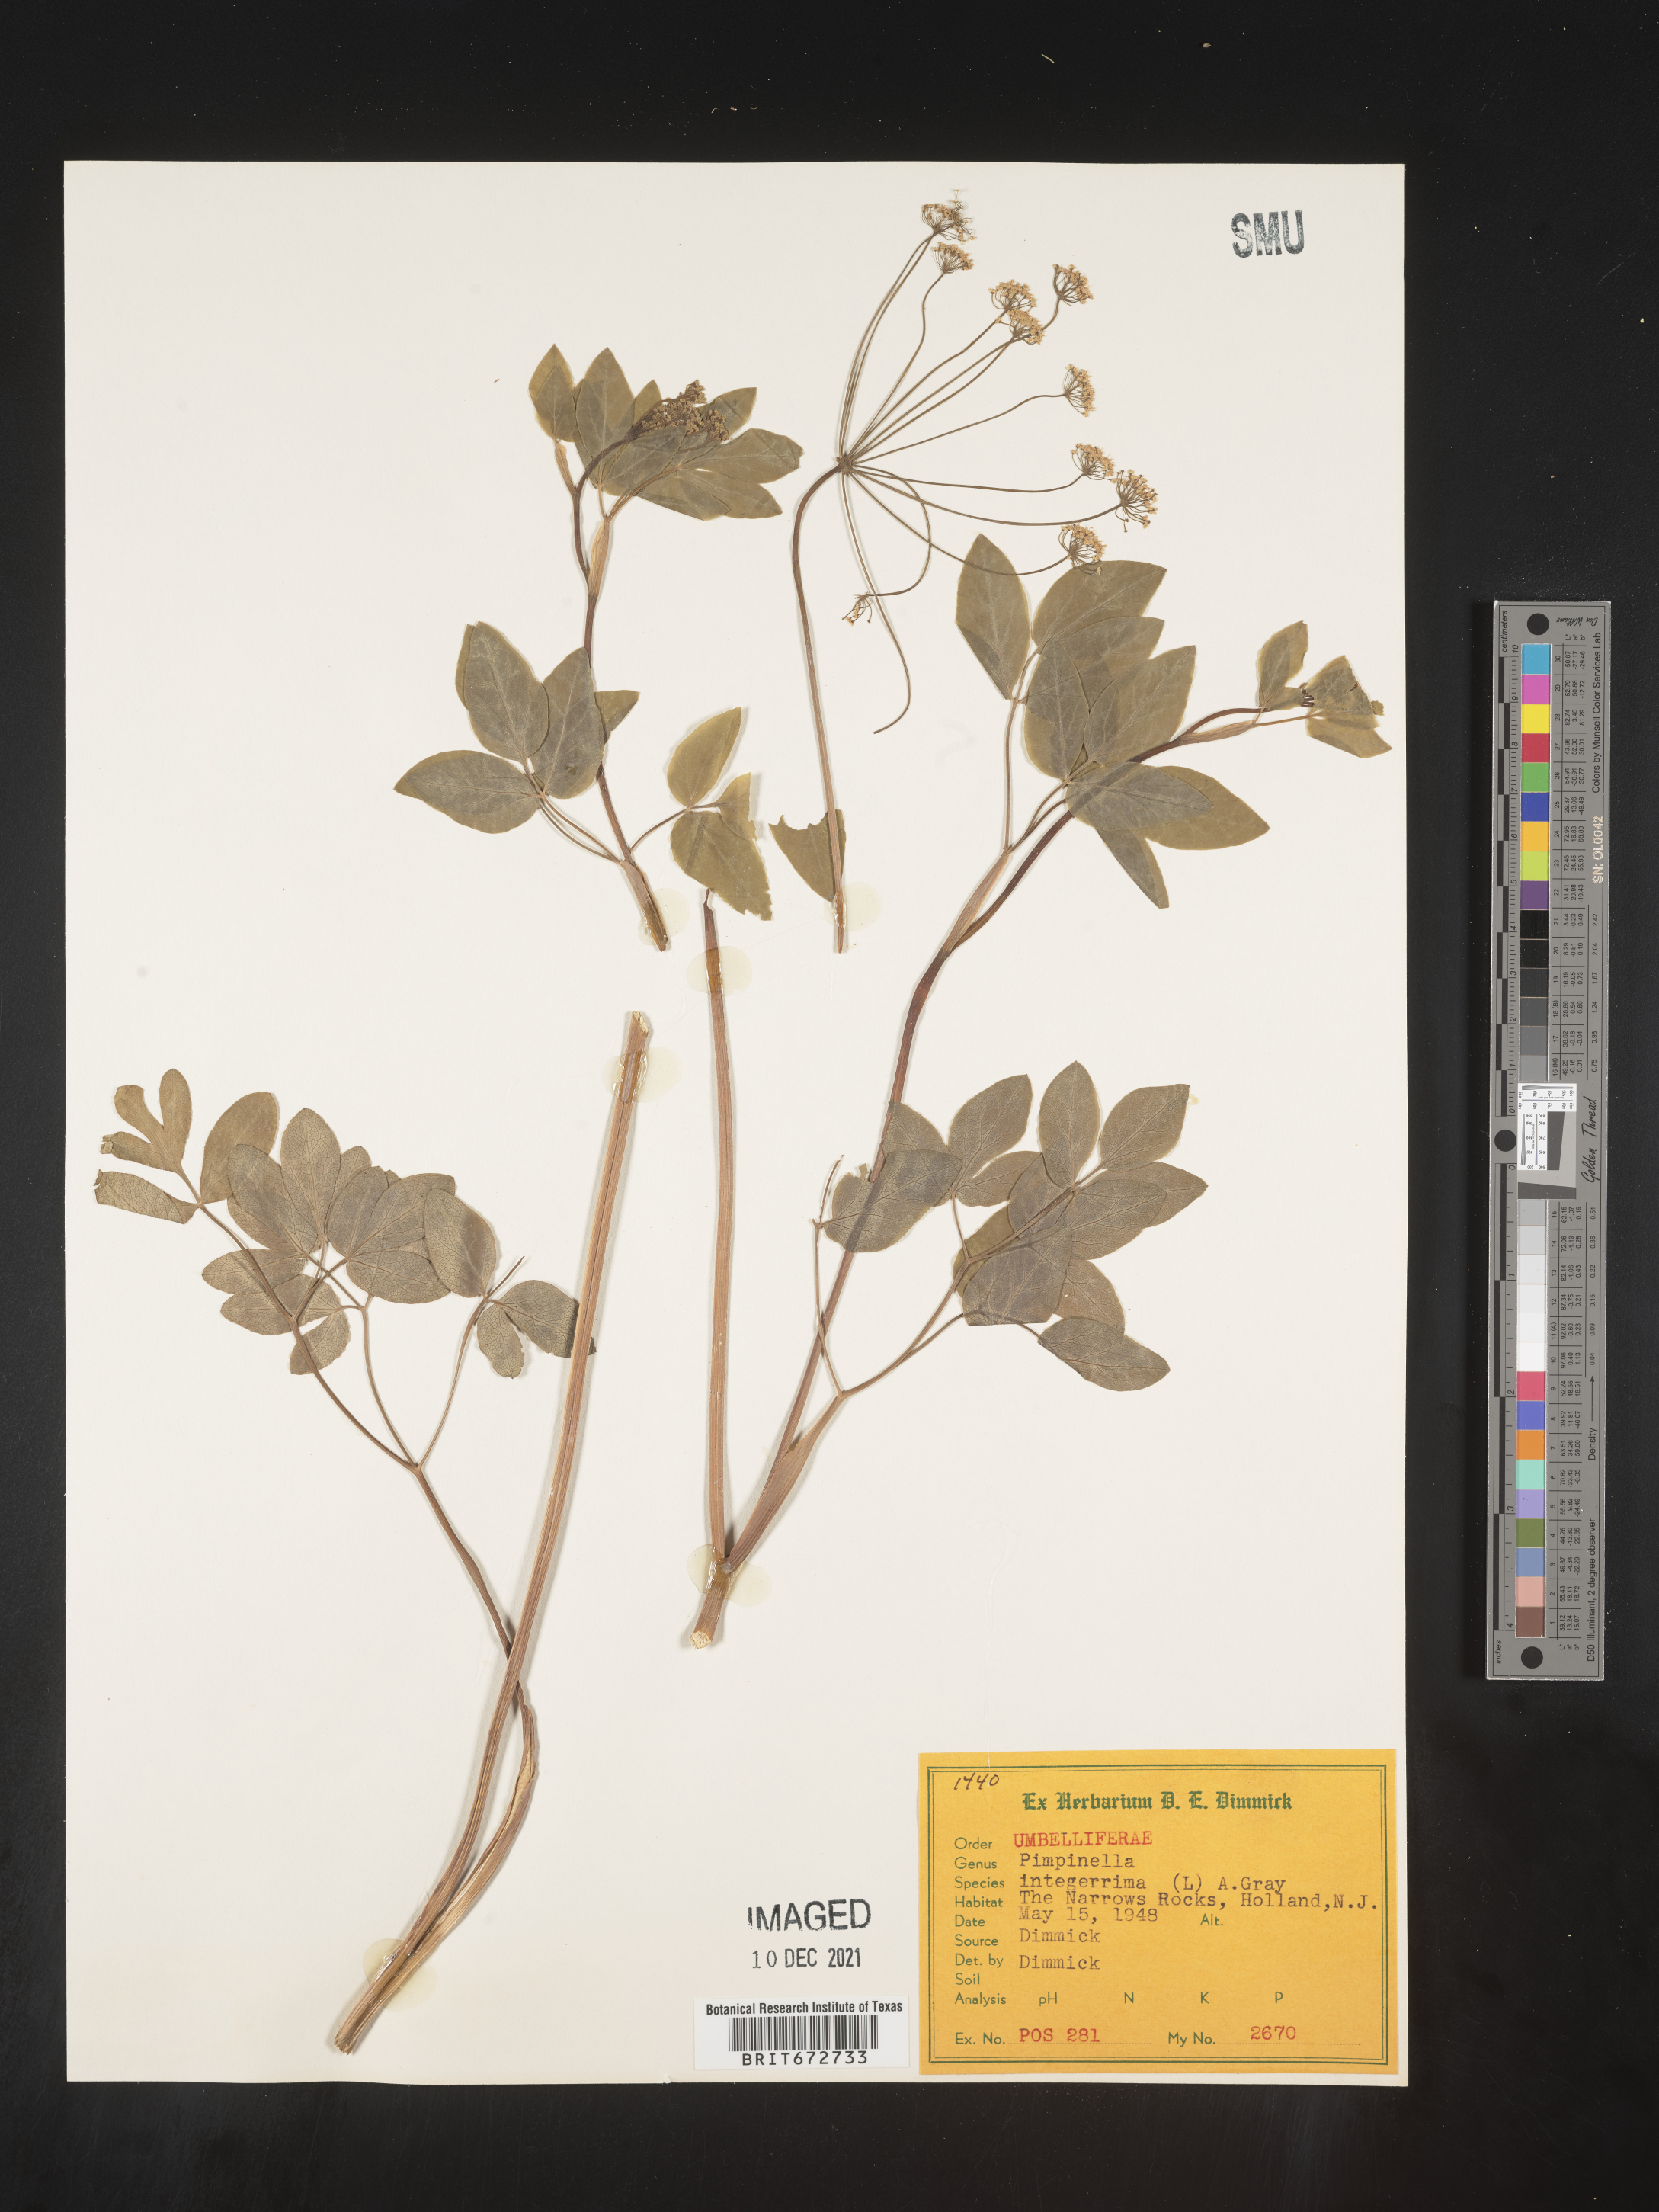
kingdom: Plantae
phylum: Tracheophyta
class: Magnoliopsida
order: Apiales
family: Apiaceae
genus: Taenidia
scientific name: Taenidia
